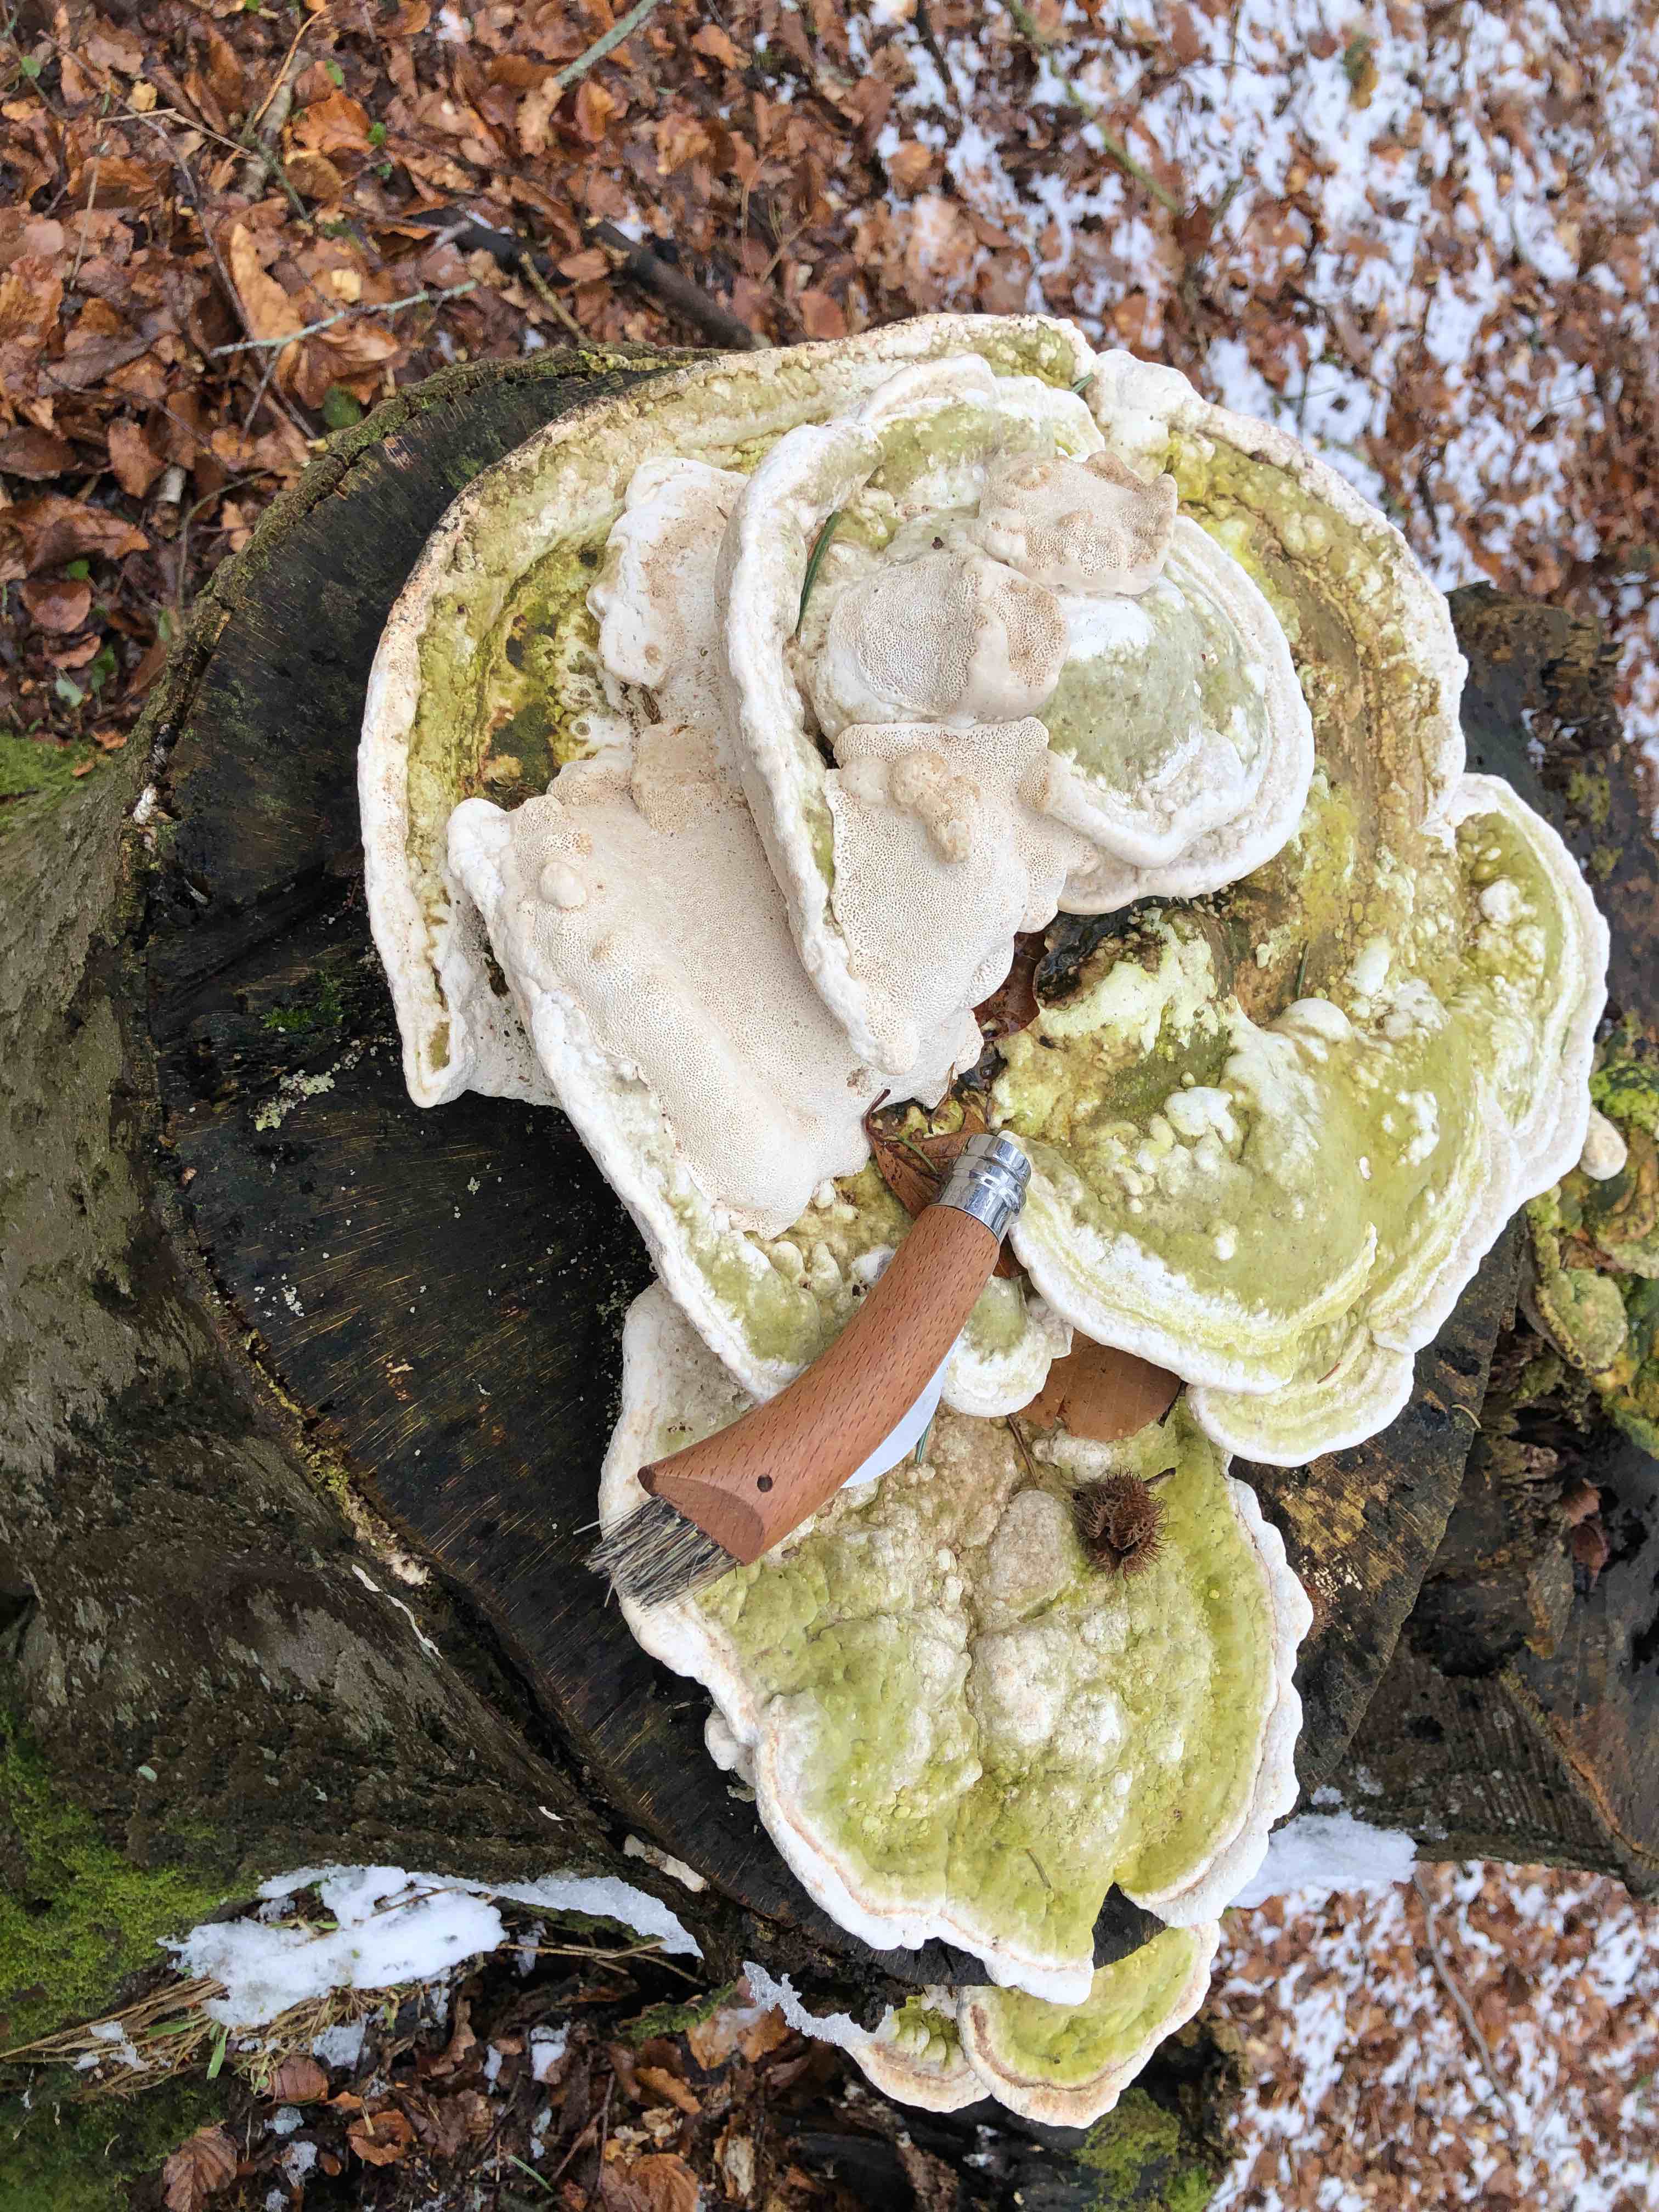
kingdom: Fungi
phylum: Basidiomycota
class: Agaricomycetes
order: Polyporales
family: Polyporaceae
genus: Trametes
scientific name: Trametes gibbosa
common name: puklet læderporesvamp
